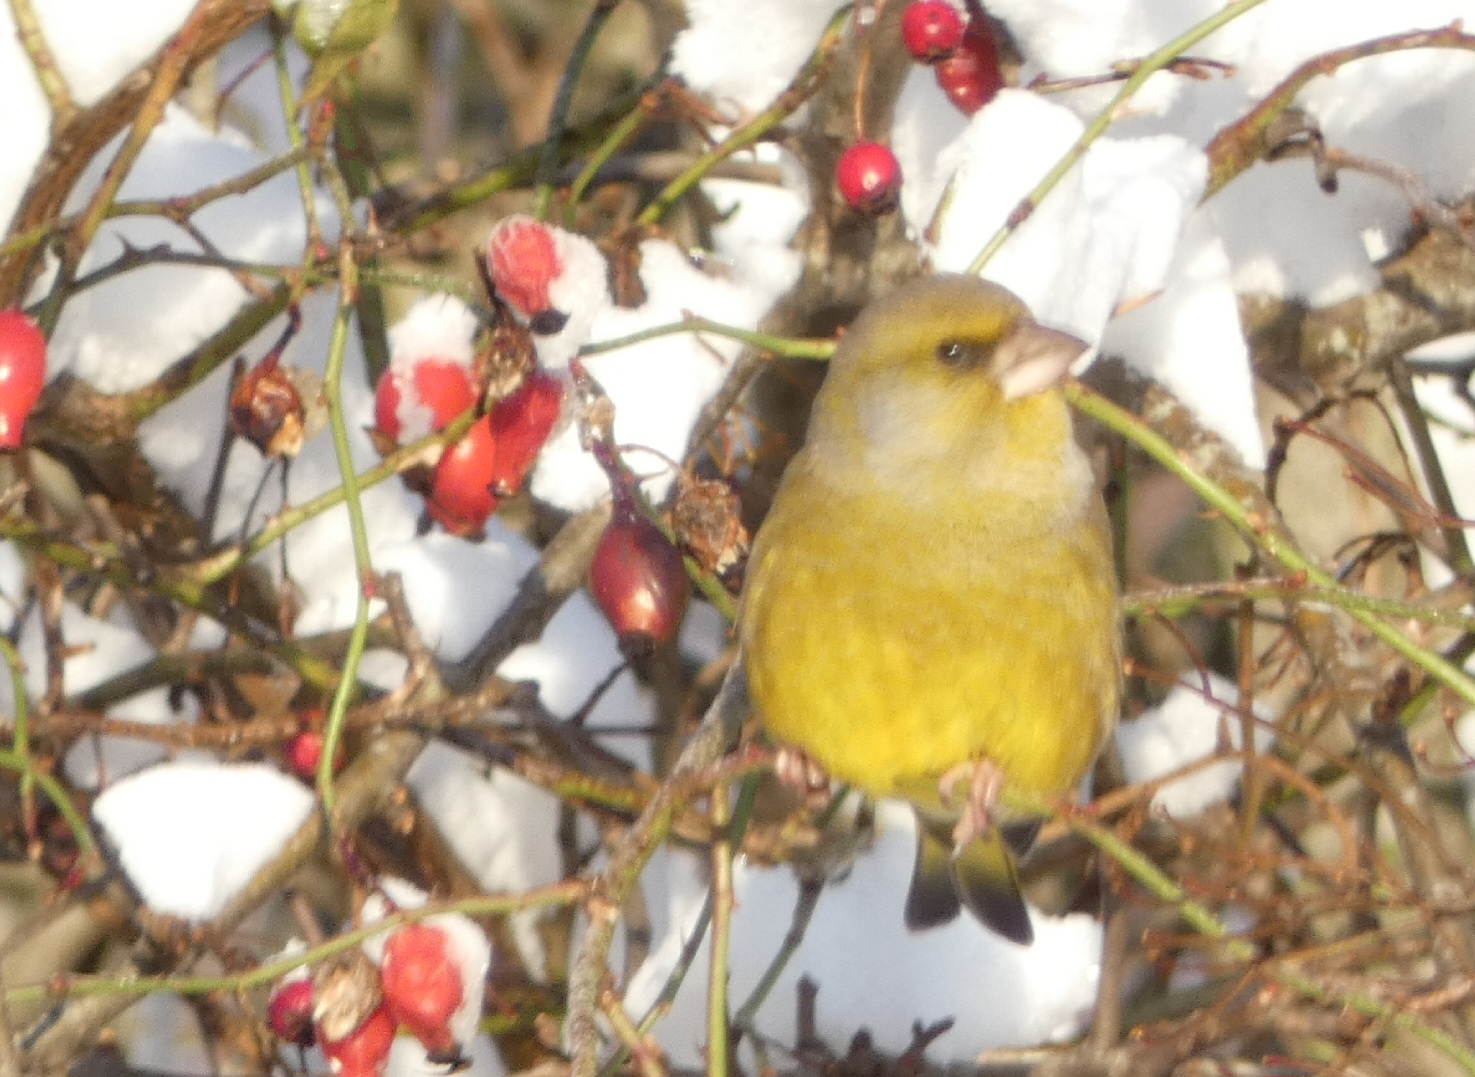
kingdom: Plantae
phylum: Tracheophyta
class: Liliopsida
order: Poales
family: Poaceae
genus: Chloris
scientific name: Chloris chloris
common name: Grønirisk
